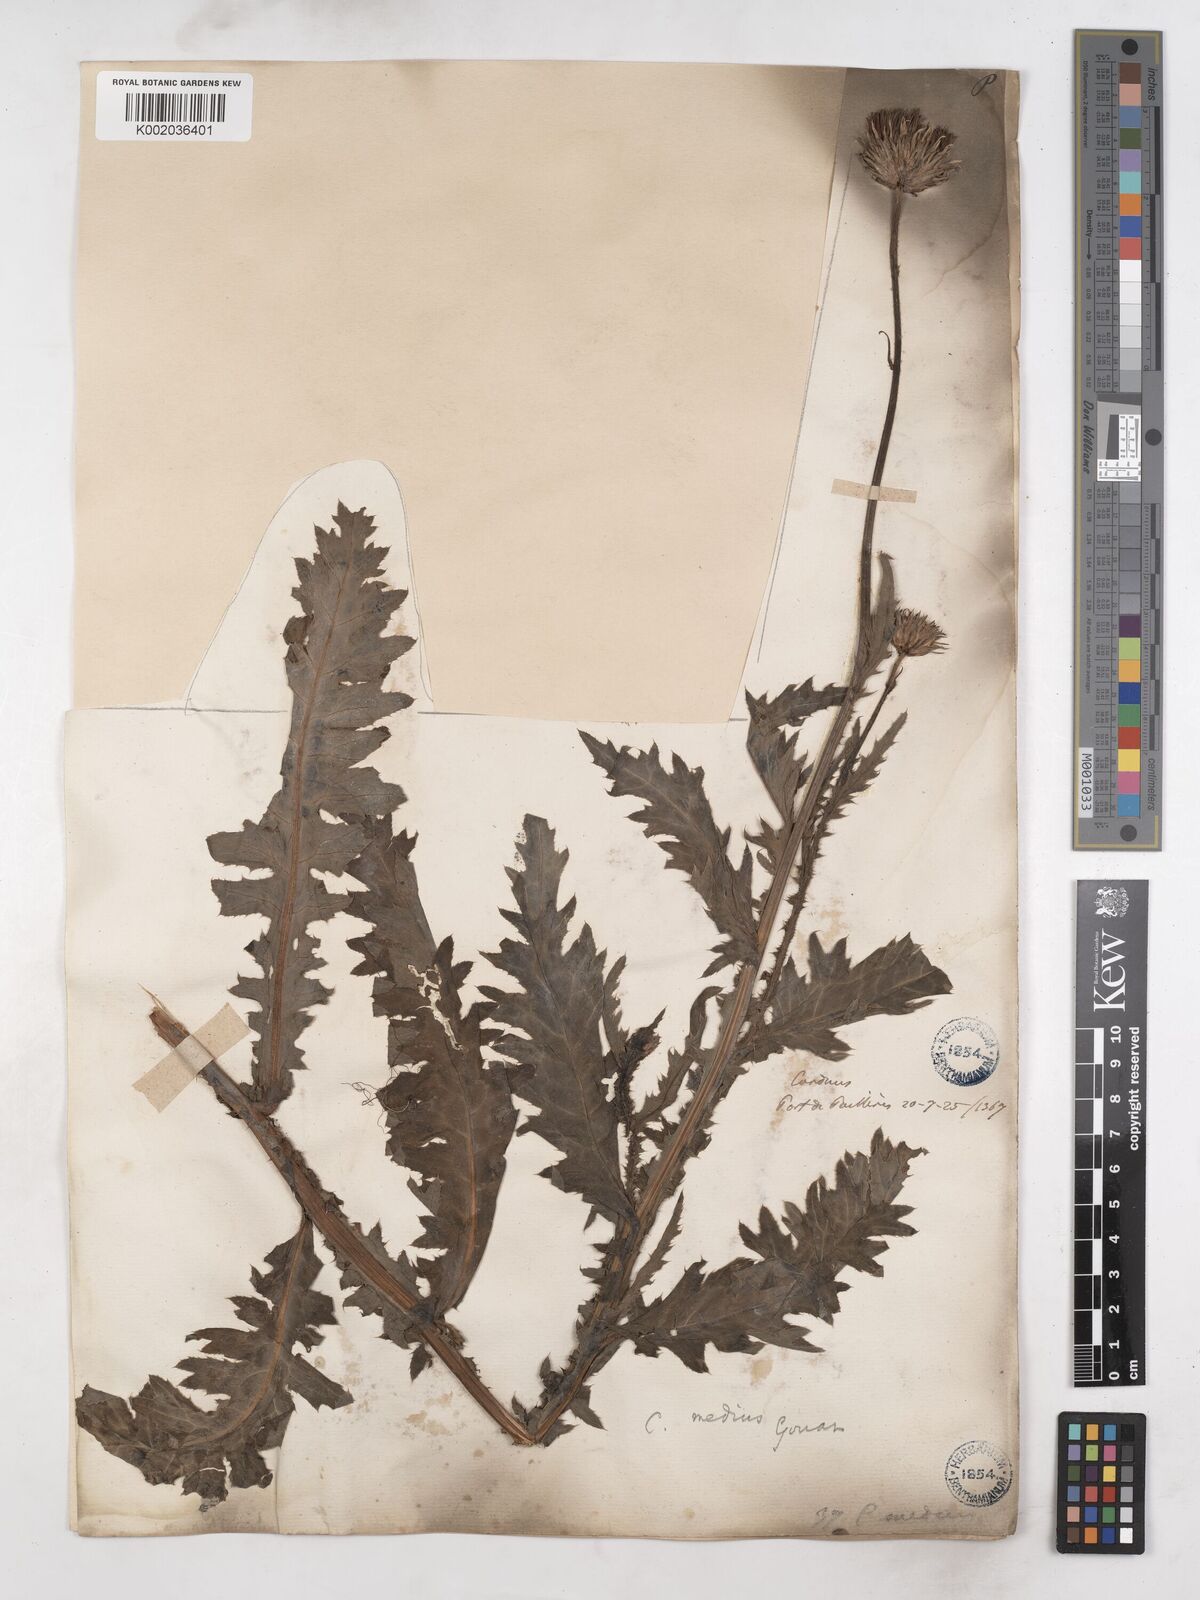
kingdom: Plantae
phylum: Tracheophyta
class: Magnoliopsida
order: Asterales
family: Asteraceae
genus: Carduus
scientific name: Carduus defloratus
